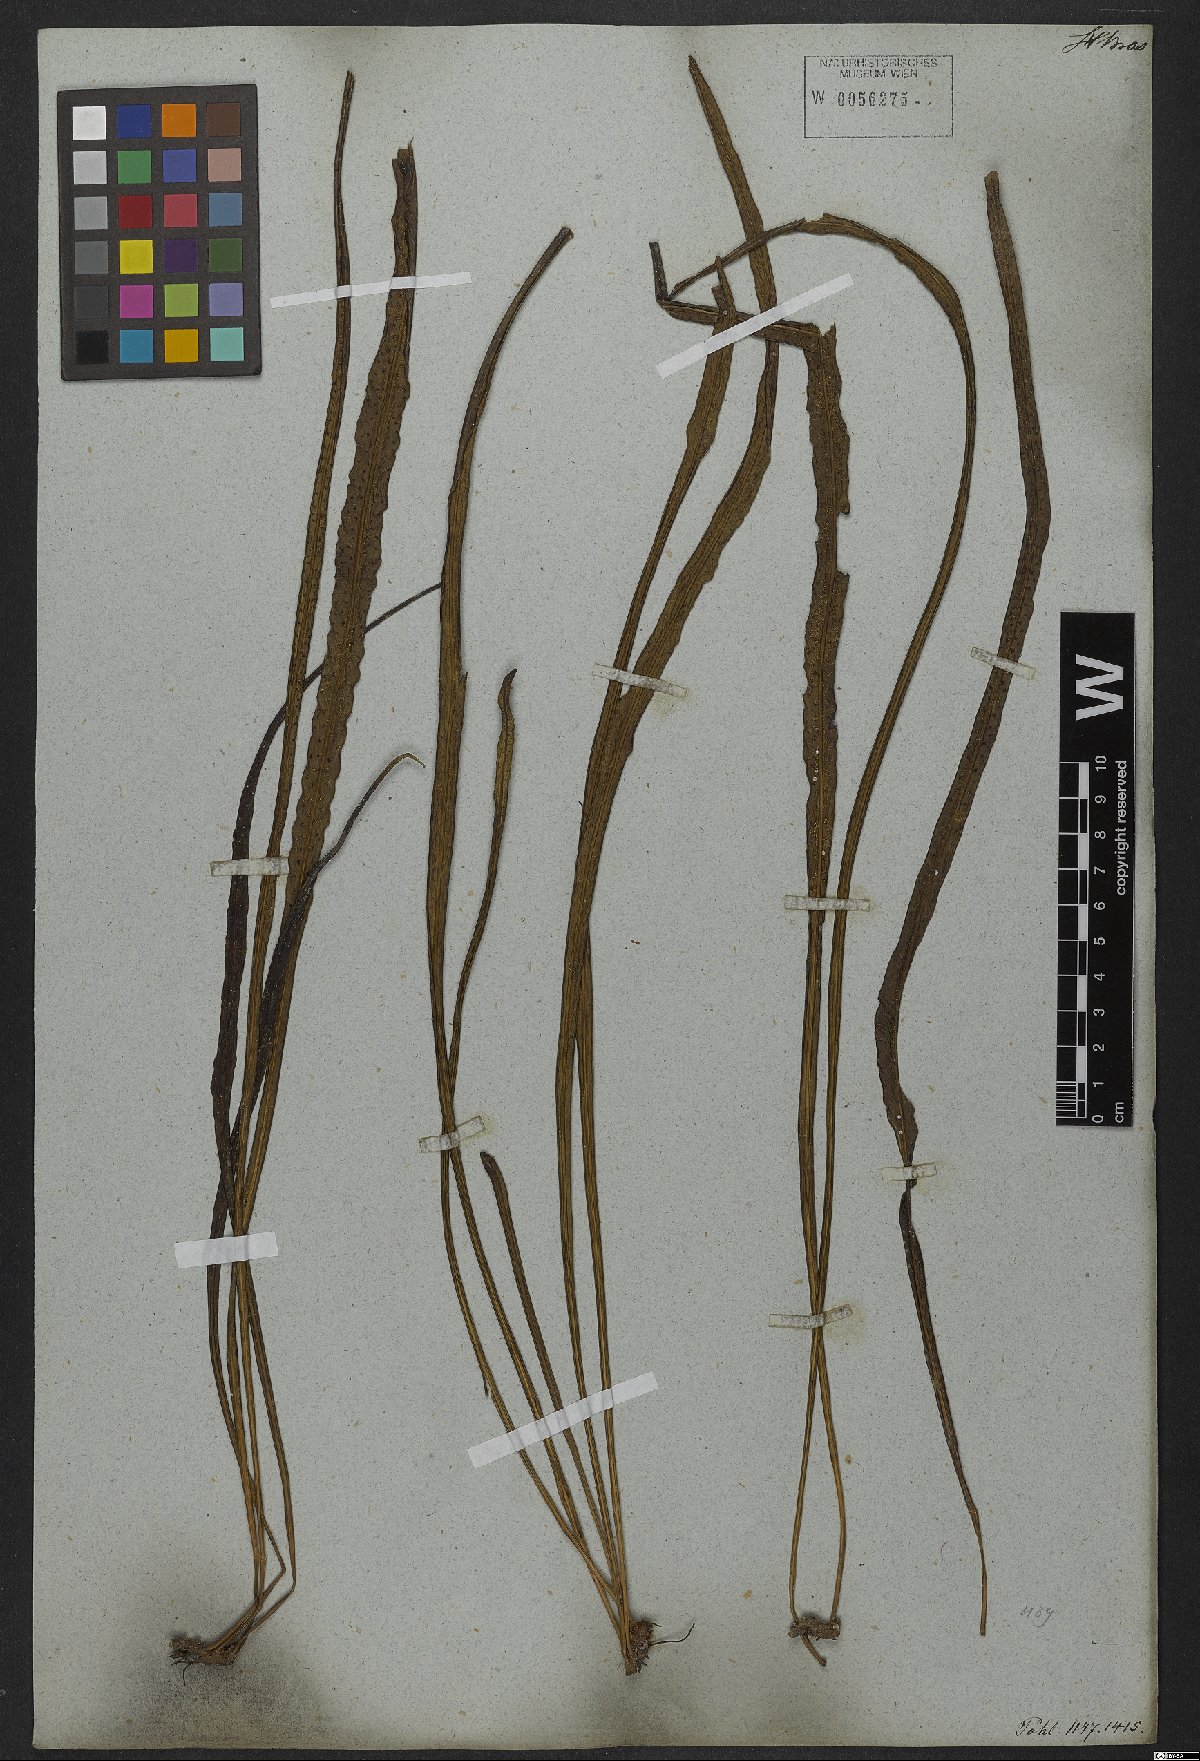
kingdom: Plantae
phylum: Tracheophyta
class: Polypodiopsida
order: Polypodiales
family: Polypodiaceae
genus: Campyloneurum
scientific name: Campyloneurum ensifolium
